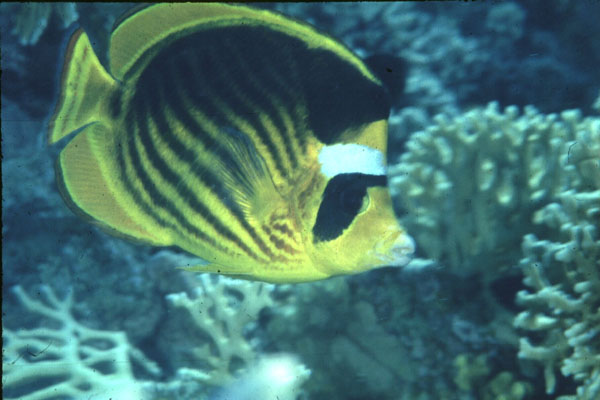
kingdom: Animalia
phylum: Chordata
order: Perciformes
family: Chaetodontidae
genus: Chaetodon
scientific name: Chaetodon fasciatus
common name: Diagonal butterflyfish
